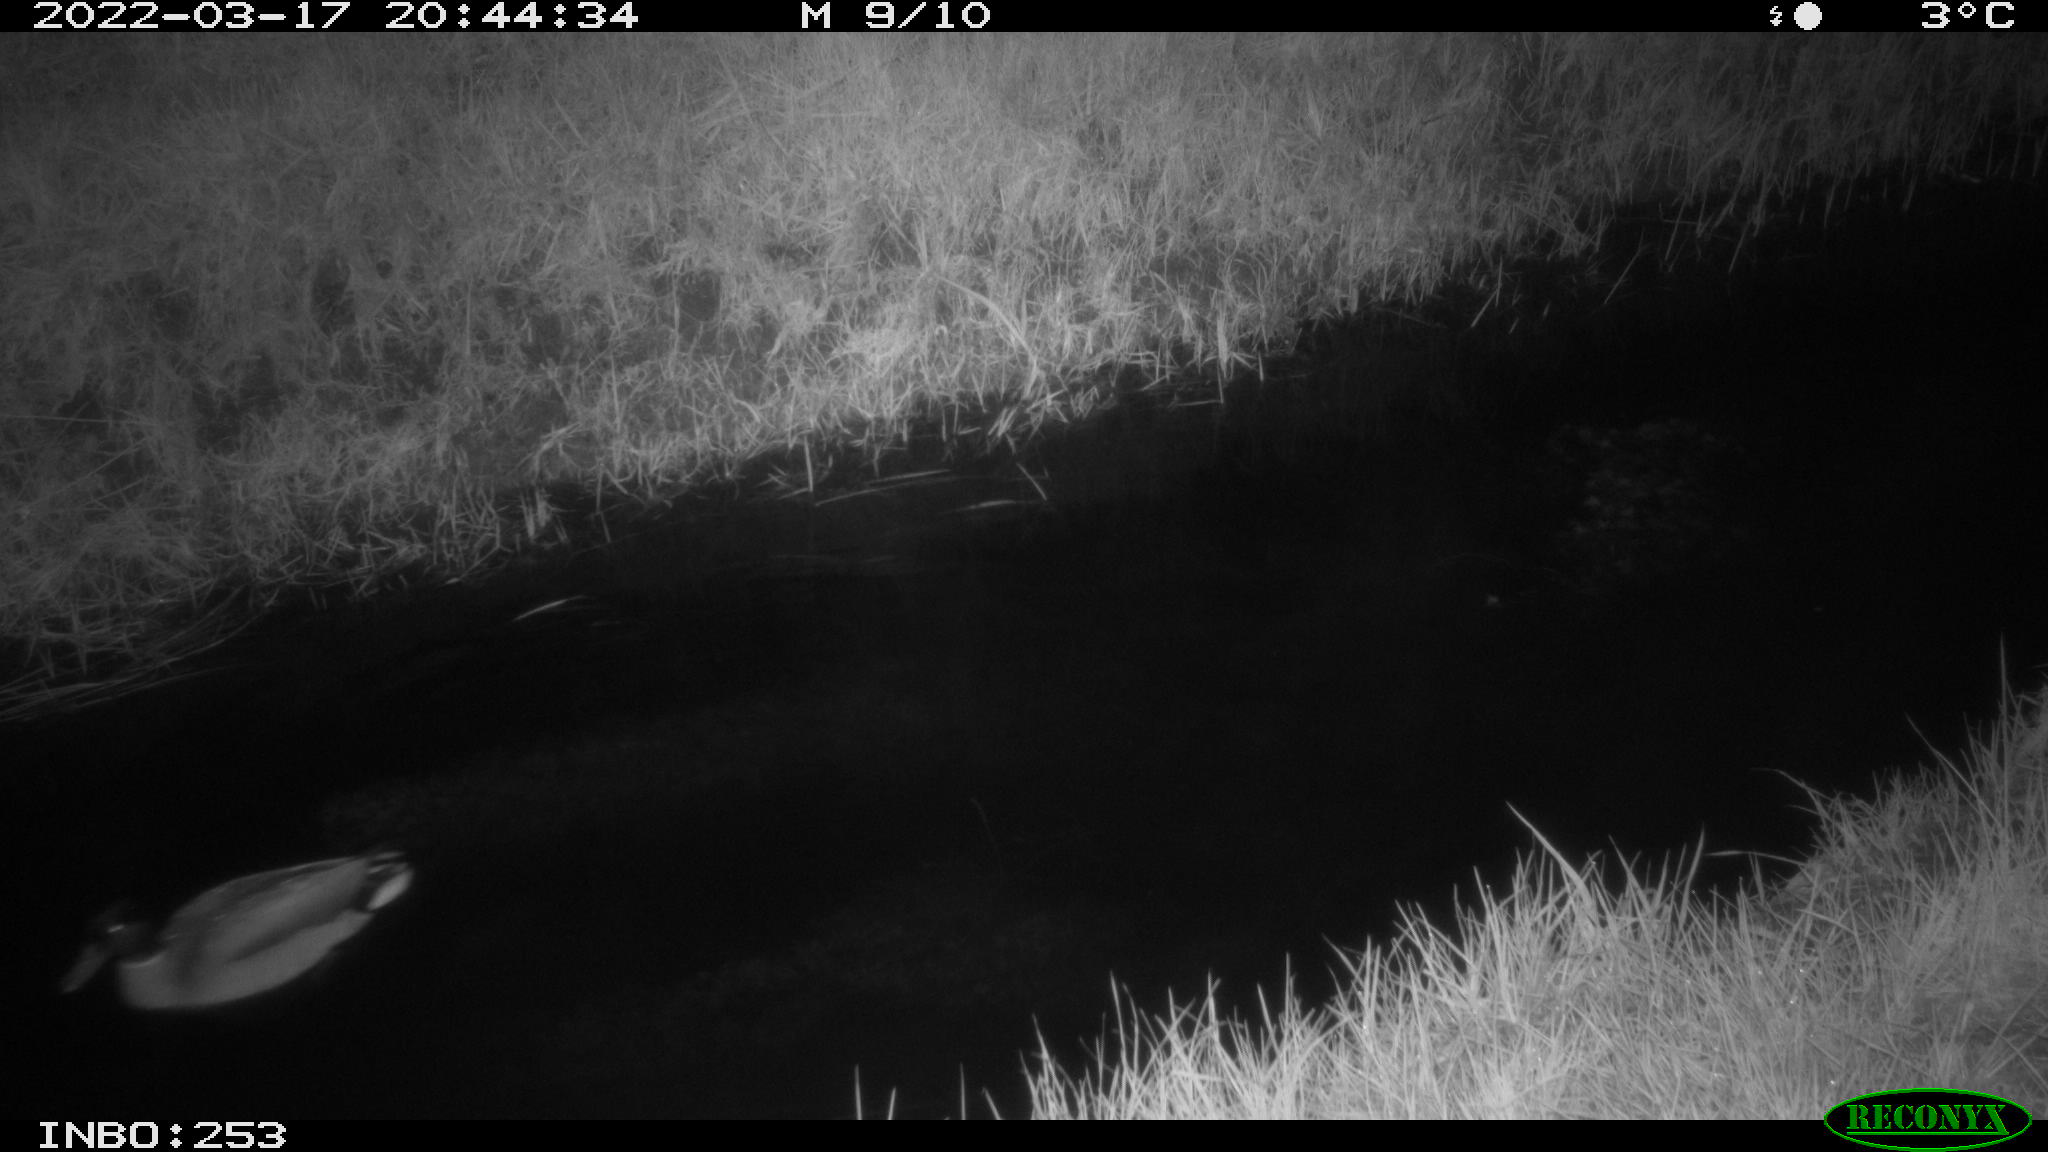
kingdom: Animalia
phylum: Chordata
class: Aves
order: Anseriformes
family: Anatidae
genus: Anas
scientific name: Anas platyrhynchos
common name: Mallard
